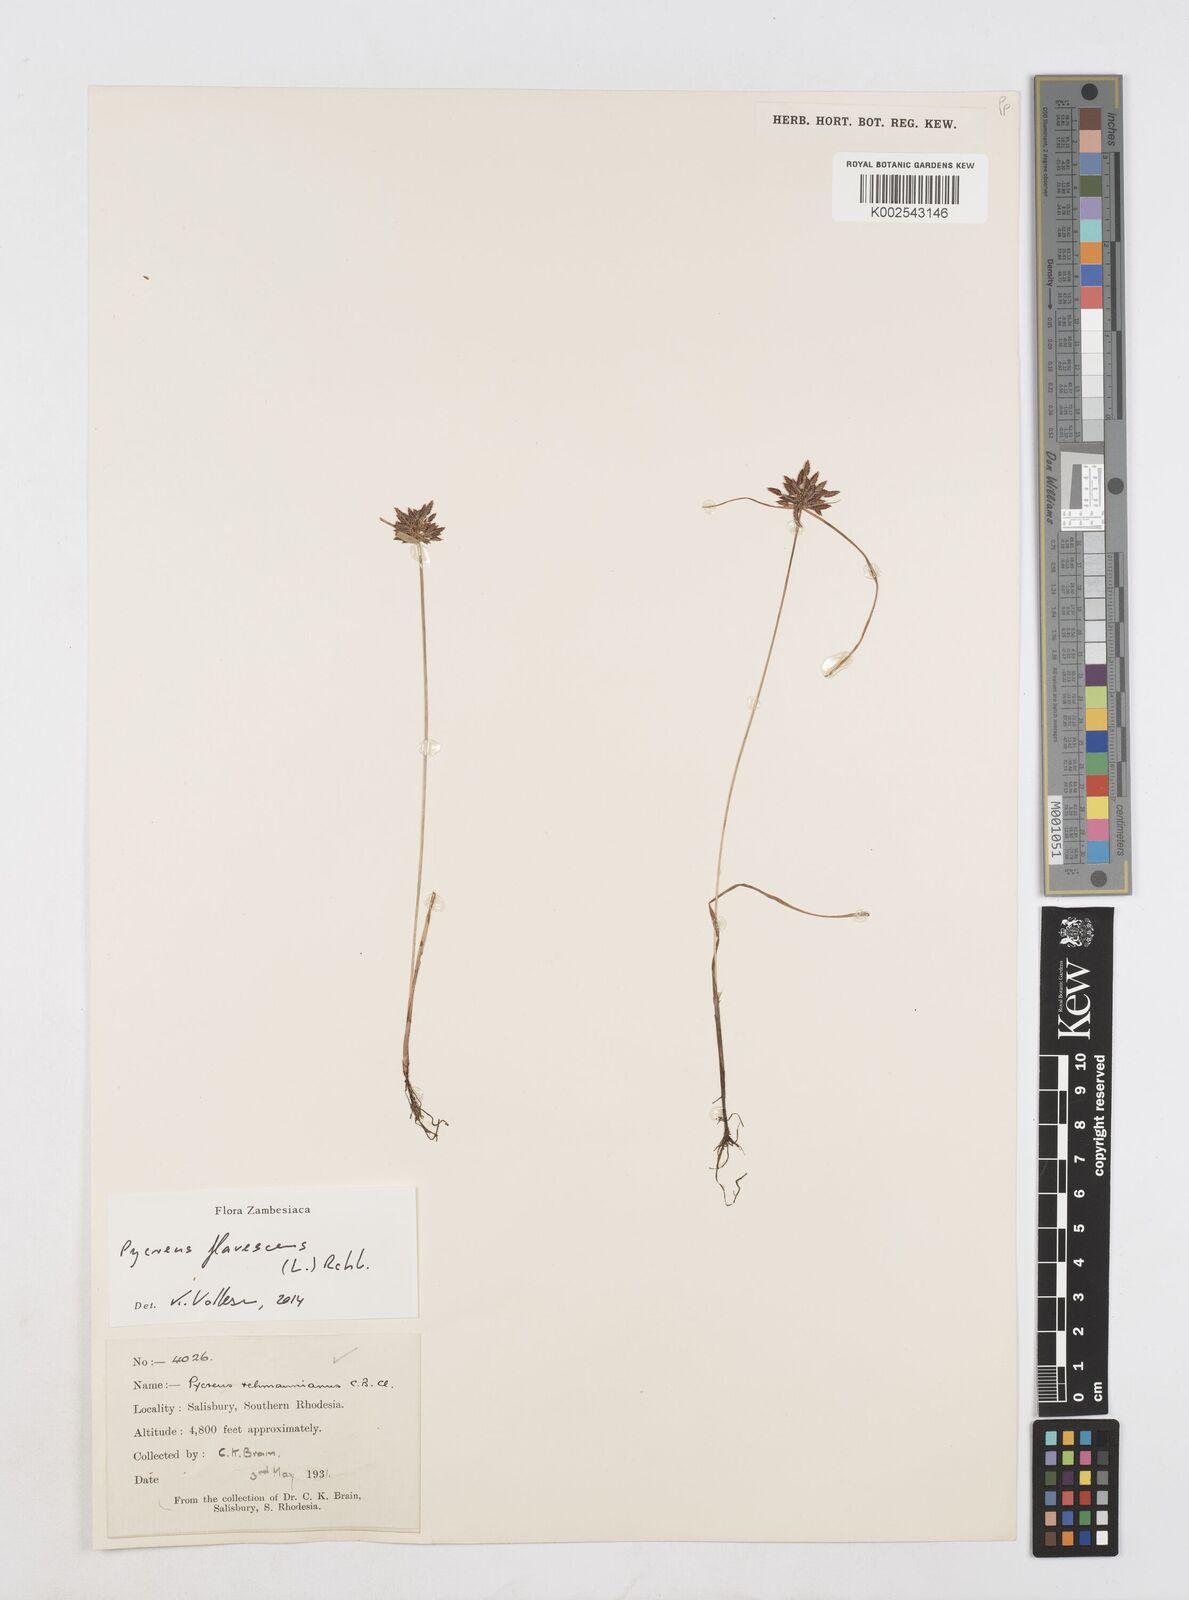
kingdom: Plantae
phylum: Tracheophyta
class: Liliopsida
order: Poales
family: Cyperaceae
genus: Cyperus
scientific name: Cyperus flavescens
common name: Yellow galingale
